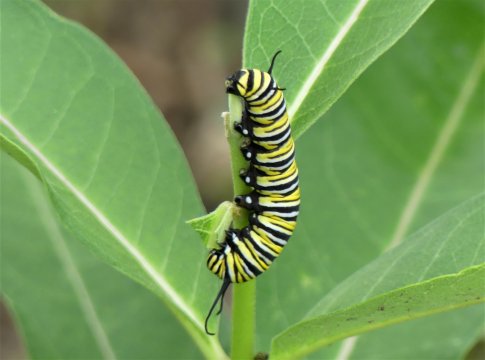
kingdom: Animalia
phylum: Arthropoda
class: Insecta
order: Lepidoptera
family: Nymphalidae
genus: Danaus
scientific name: Danaus plexippus
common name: Monarch
